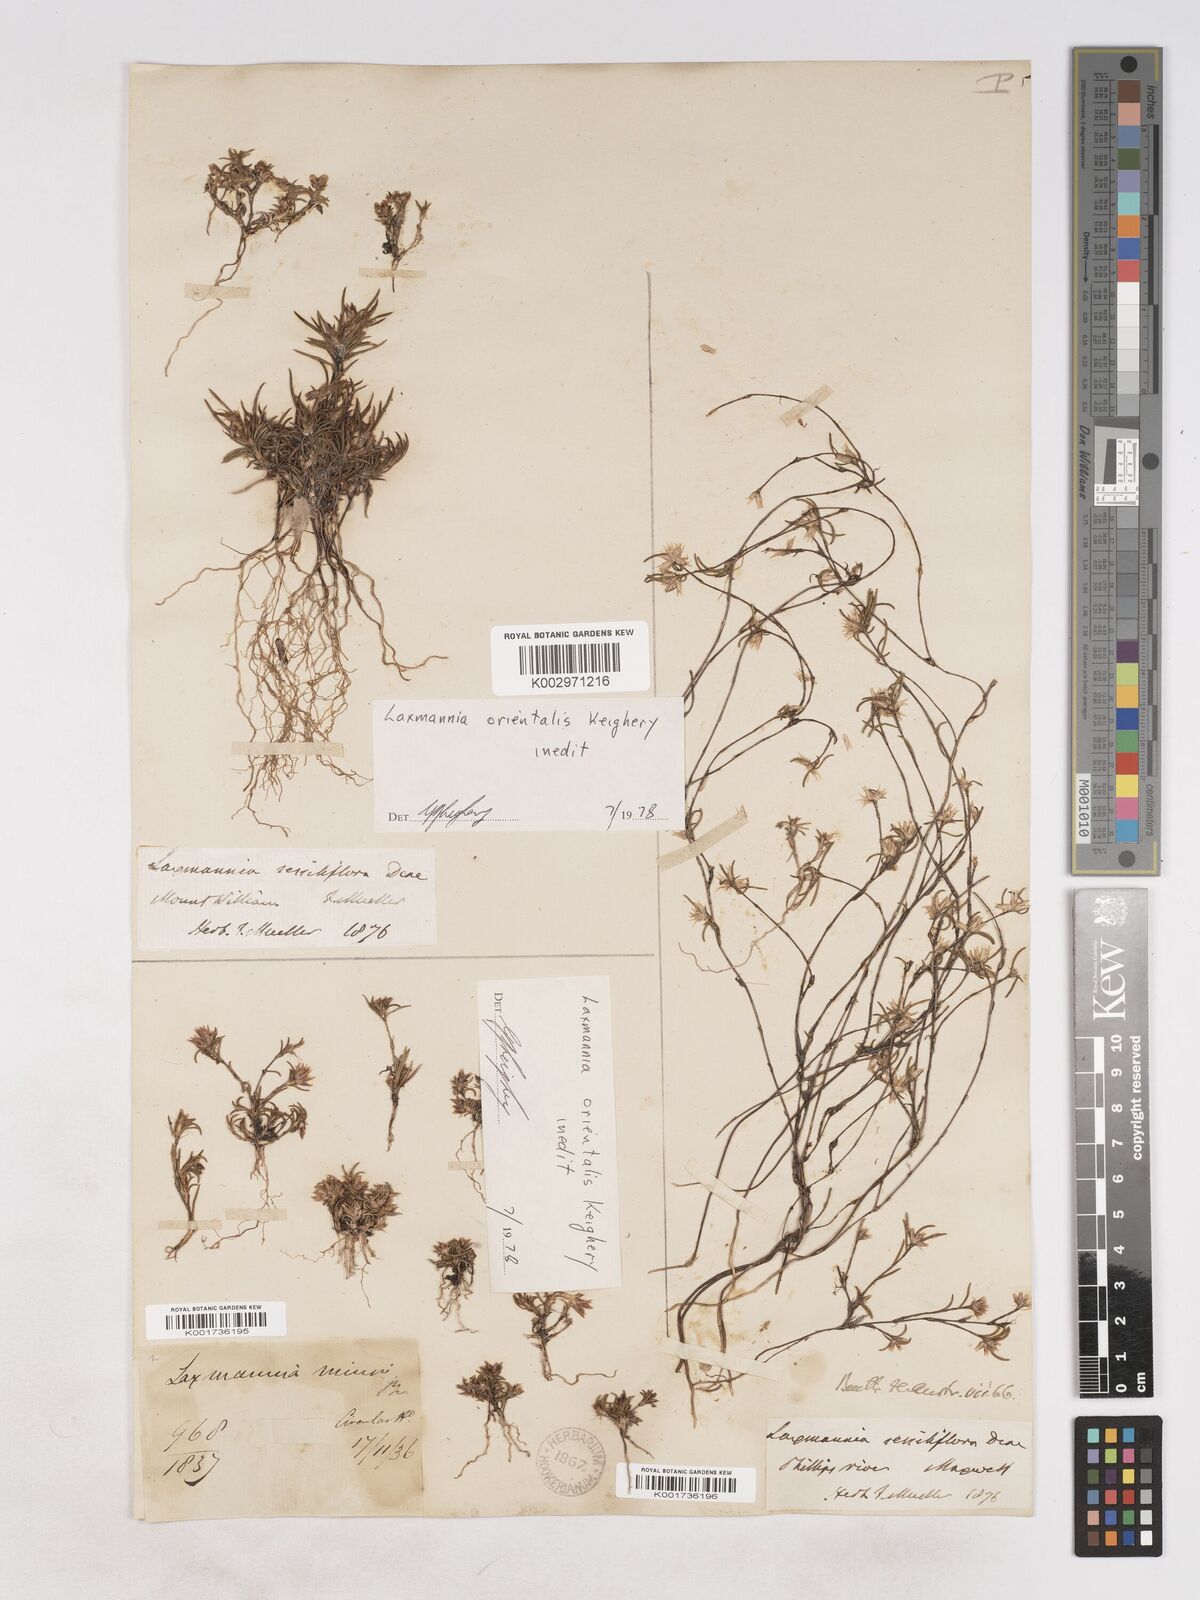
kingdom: Plantae
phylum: Tracheophyta
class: Liliopsida
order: Asparagales
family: Asparagaceae
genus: Laxmannia
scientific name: Laxmannia orientalis
